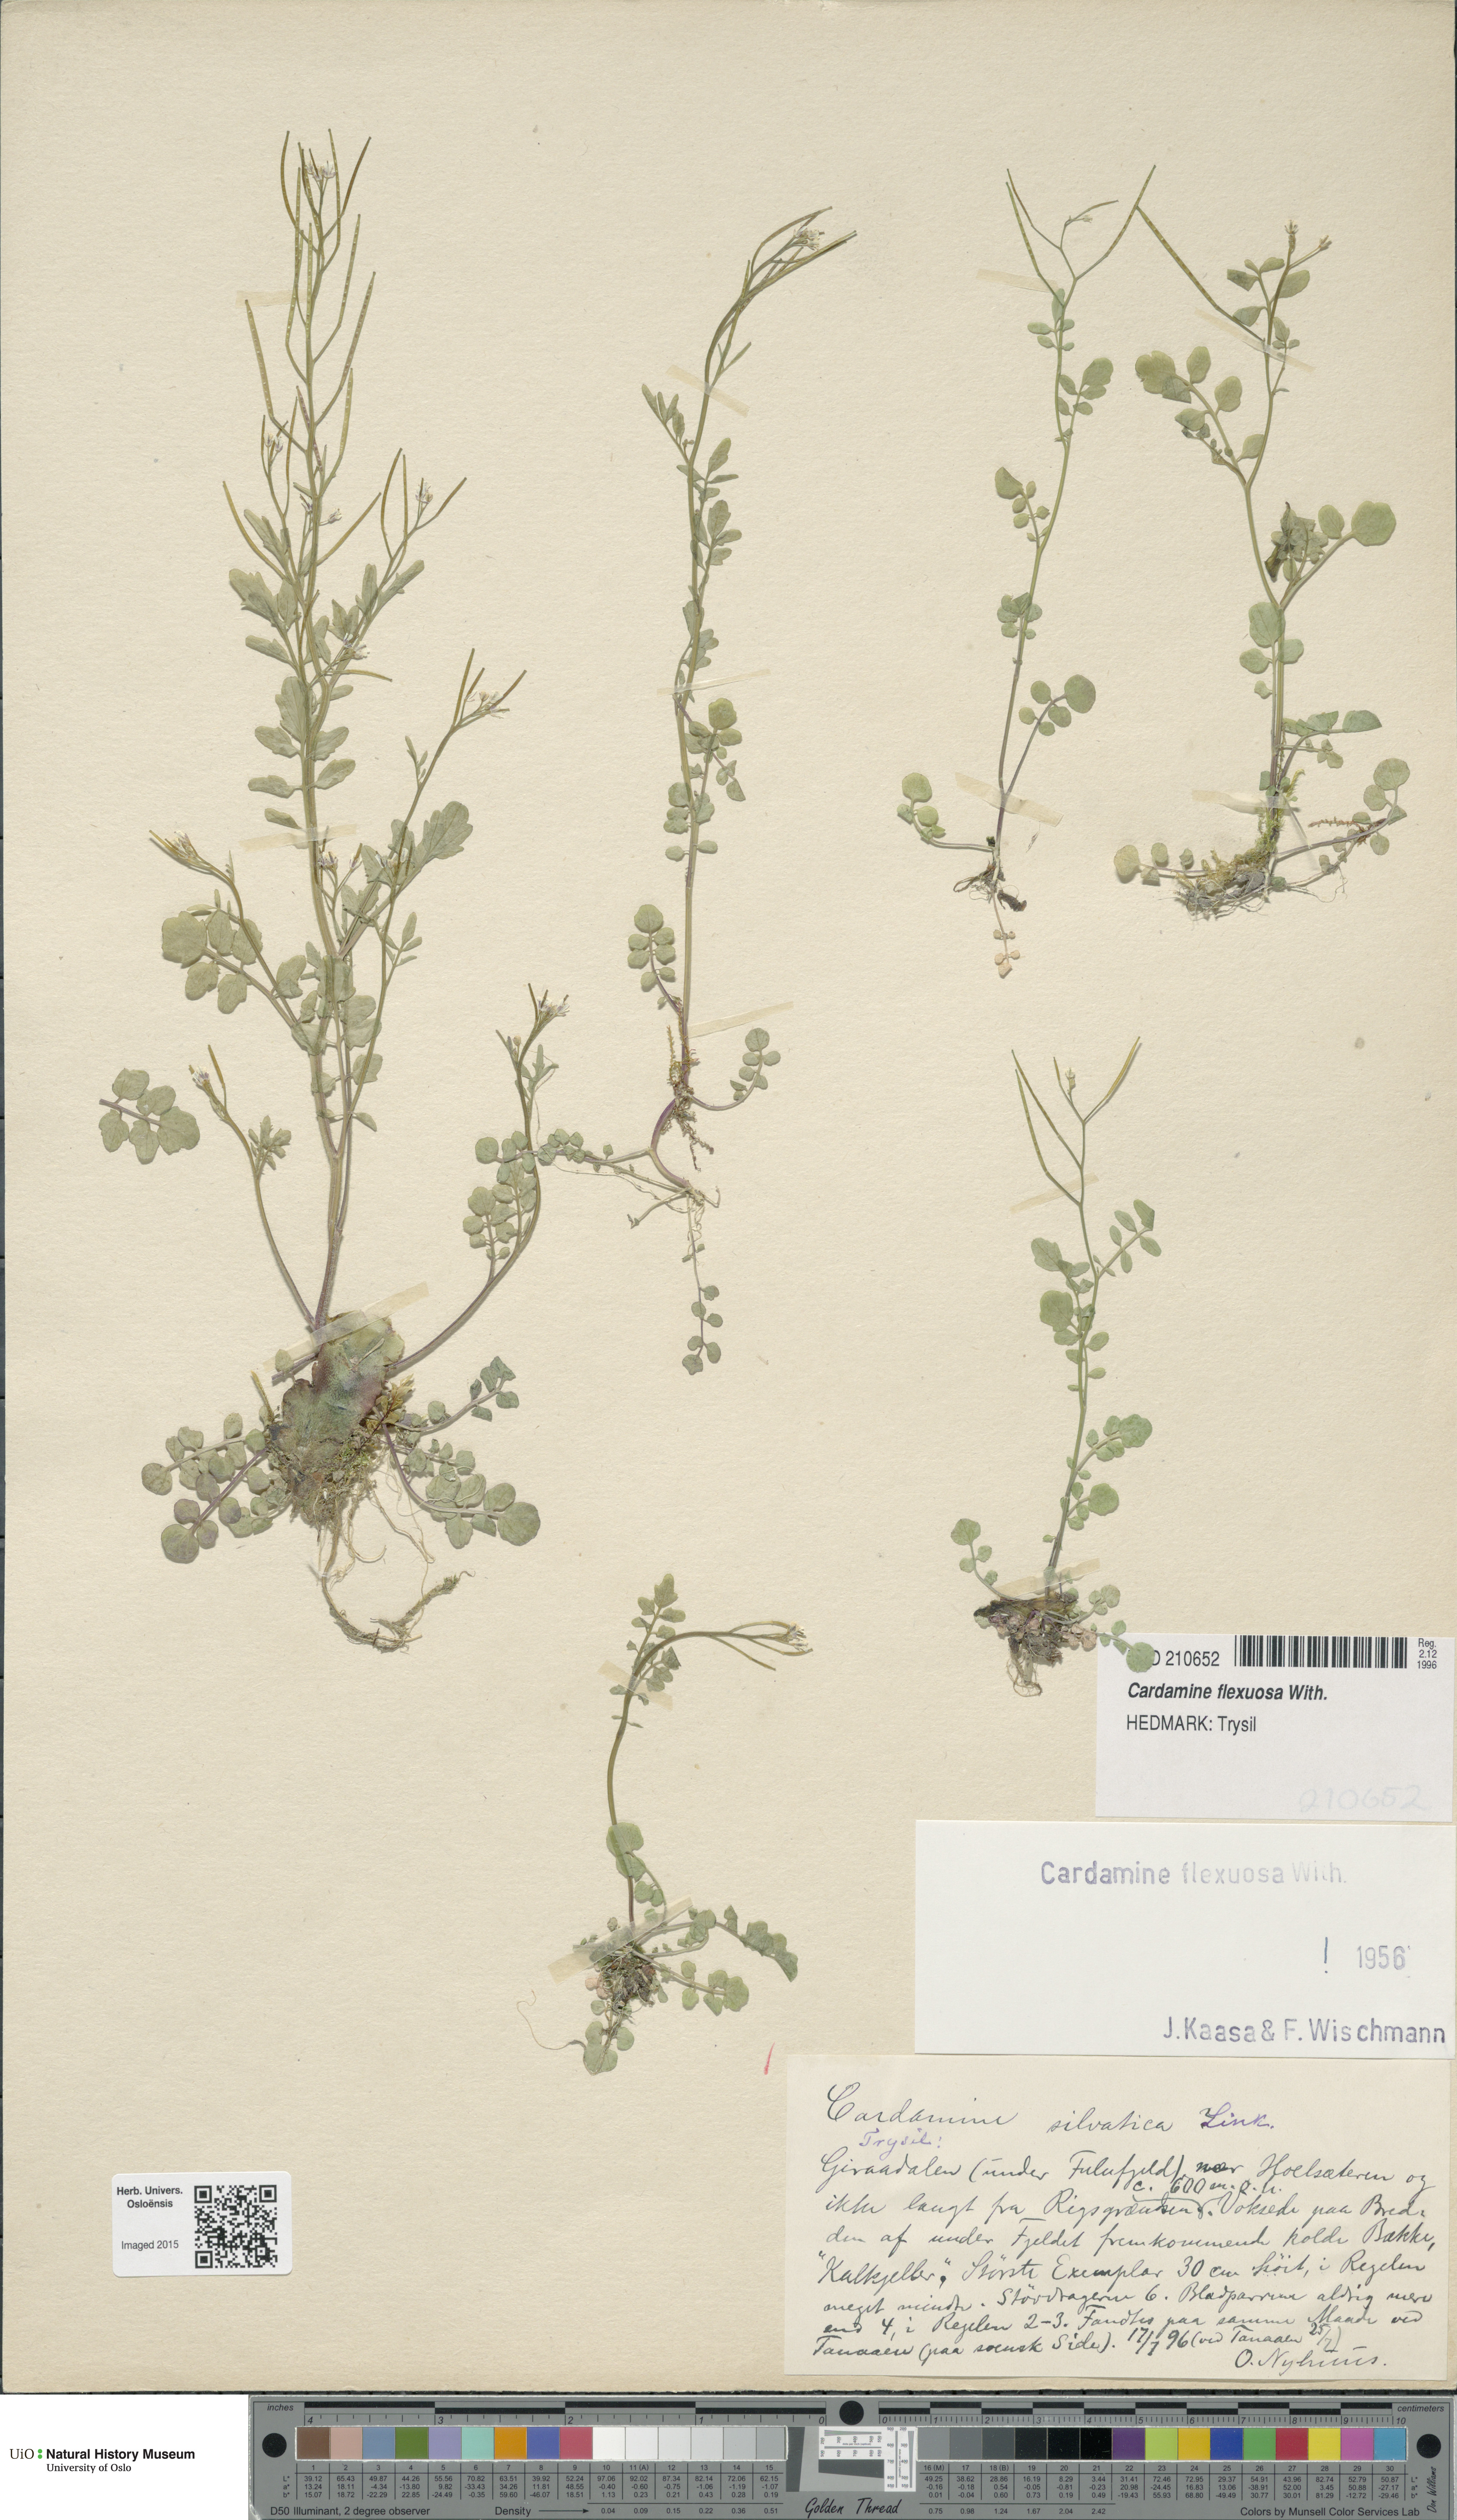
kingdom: Plantae
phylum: Tracheophyta
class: Magnoliopsida
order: Brassicales
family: Brassicaceae
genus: Cardamine
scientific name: Cardamine flexuosa
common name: Woodland bittercress
